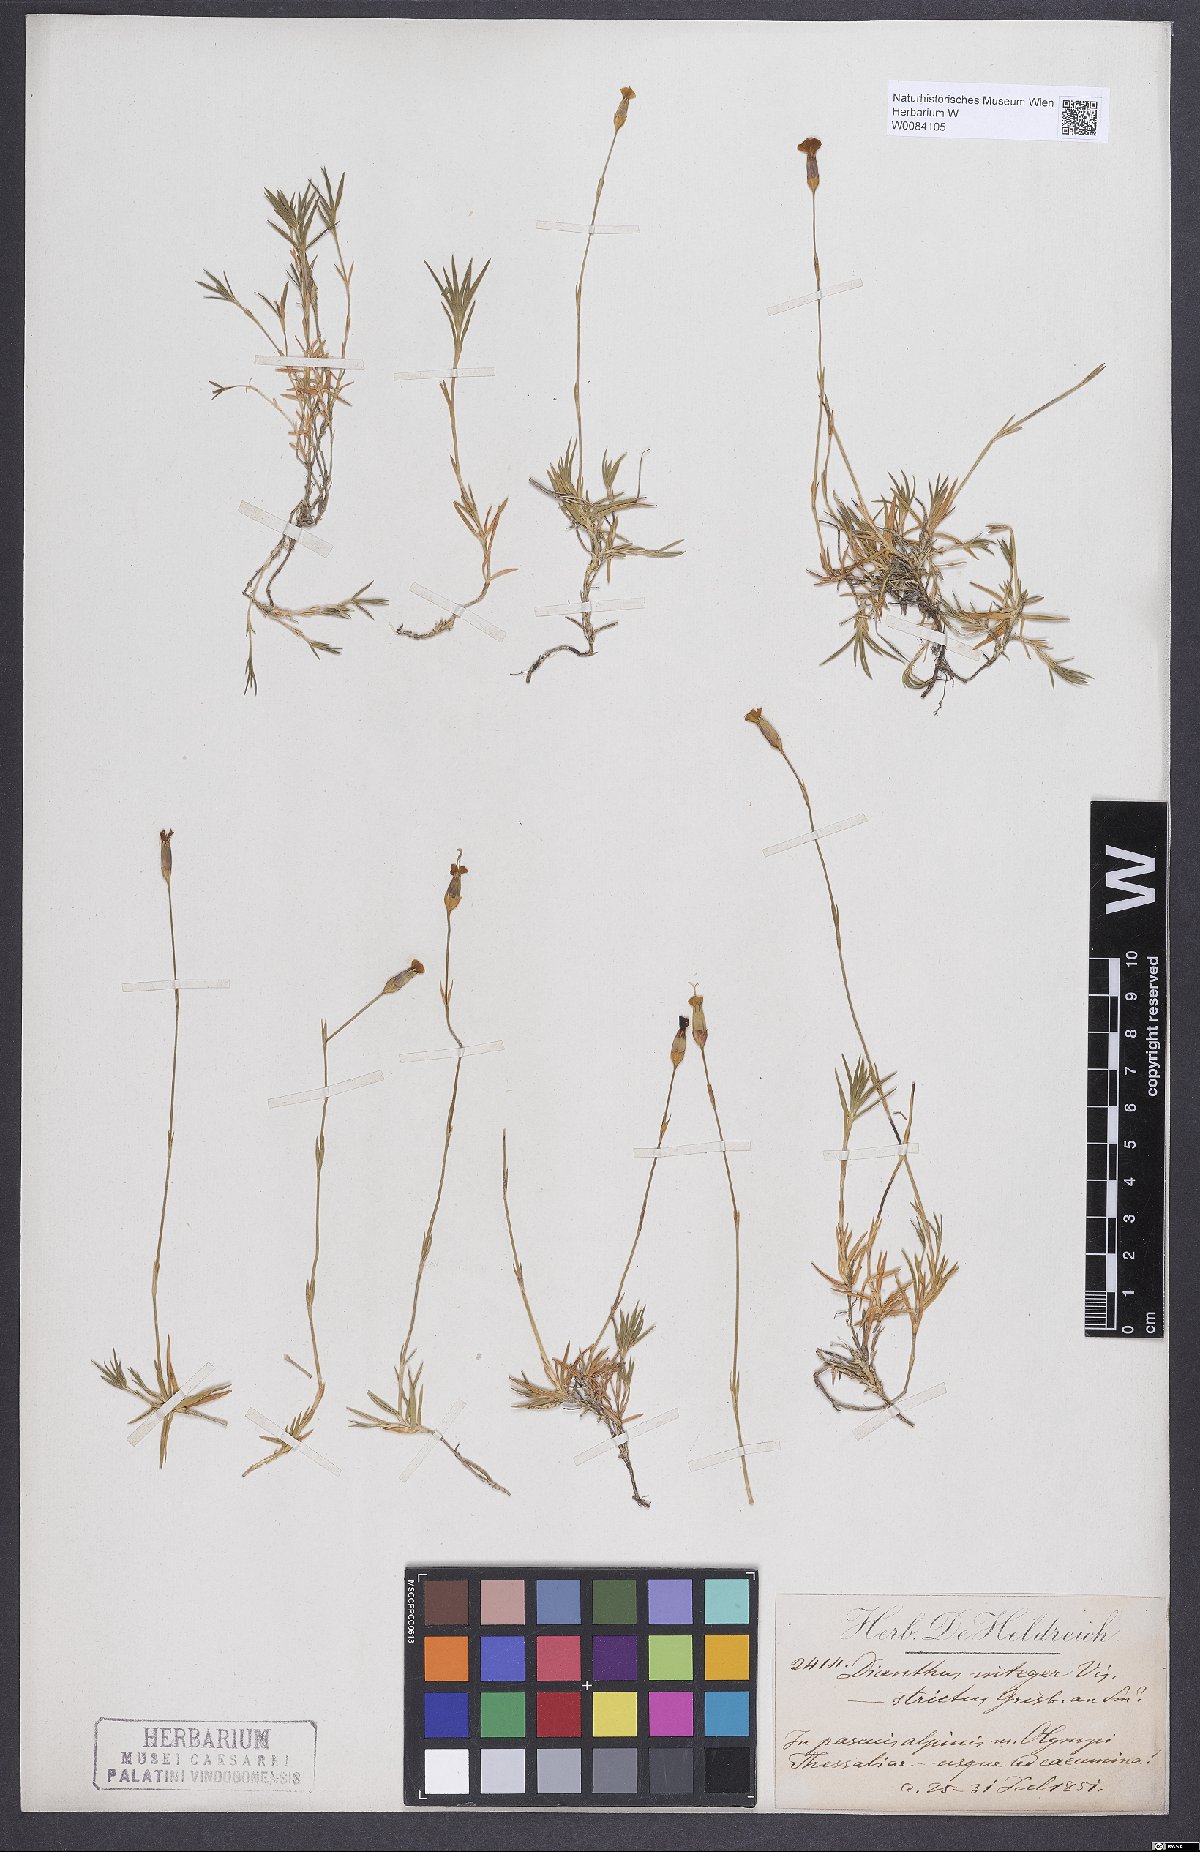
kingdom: Plantae
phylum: Tracheophyta
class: Magnoliopsida
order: Caryophyllales
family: Caryophyllaceae
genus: Dianthus
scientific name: Dianthus integer
